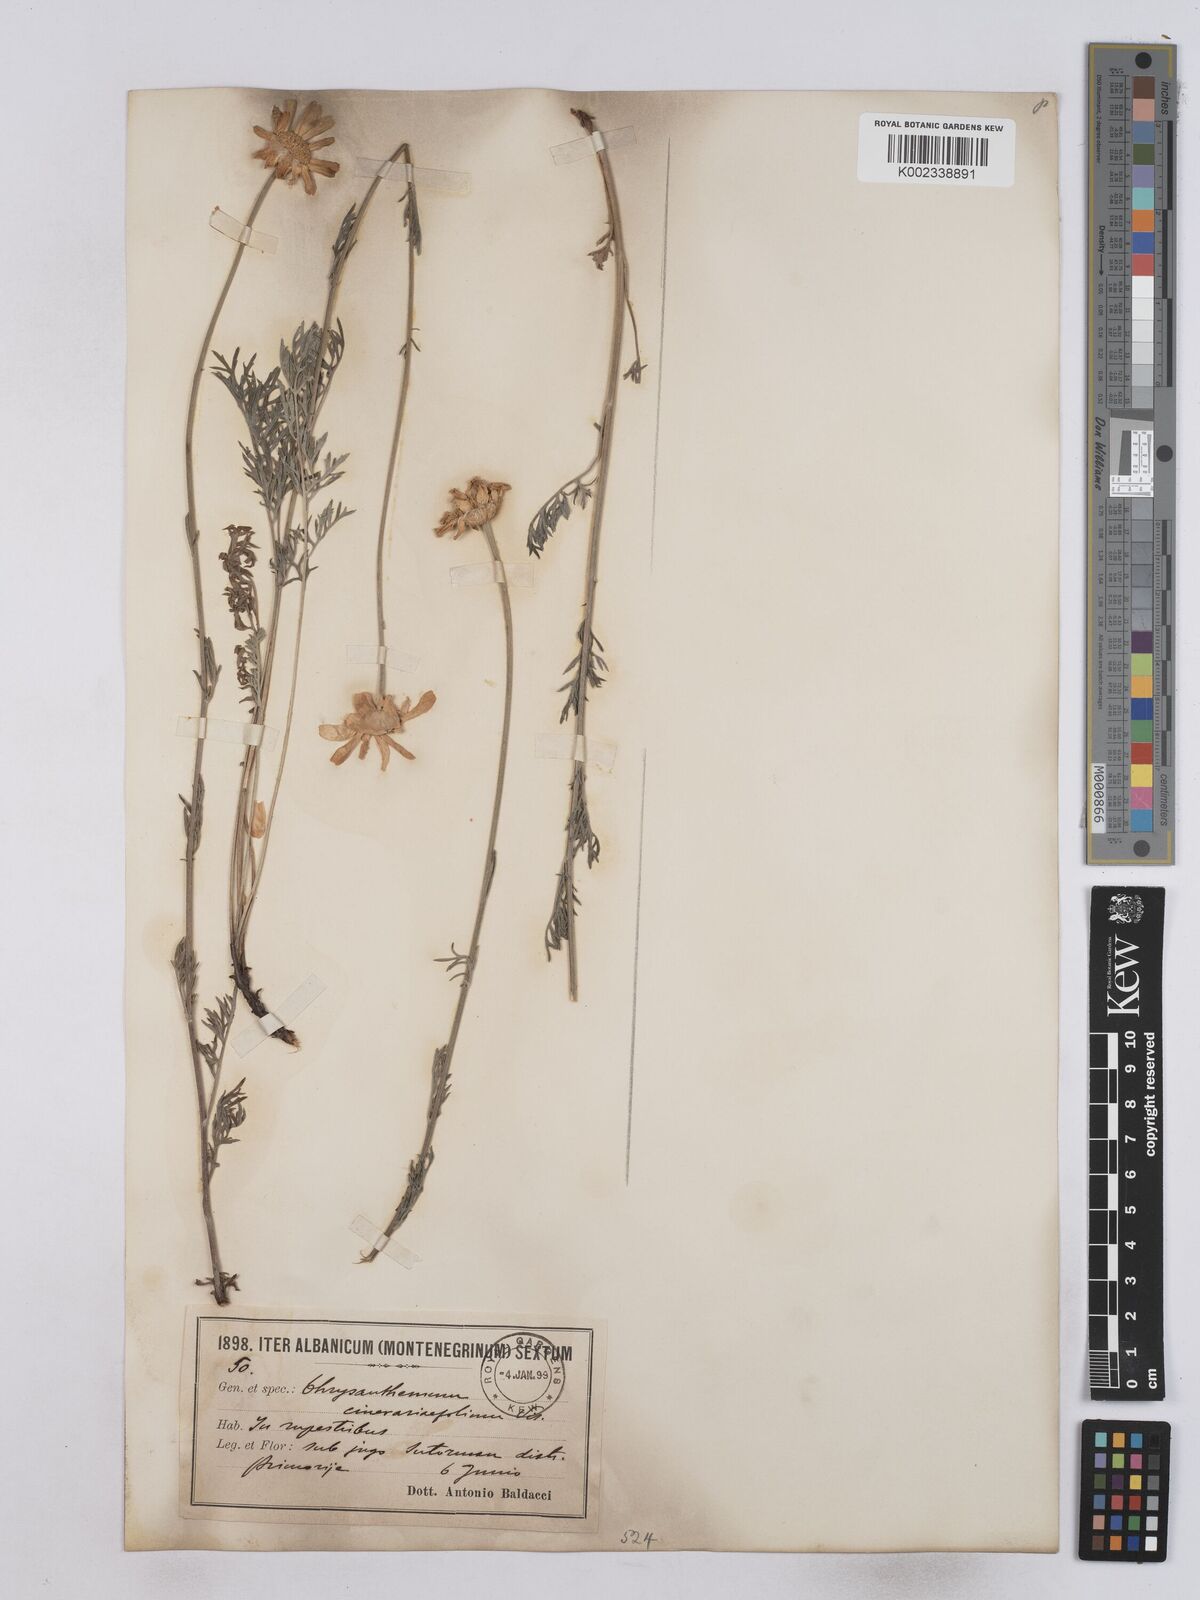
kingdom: Plantae
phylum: Tracheophyta
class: Magnoliopsida
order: Asterales
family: Asteraceae
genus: Tanacetum
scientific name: Tanacetum cinerariifolium
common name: Dalmatian pyrethrum
